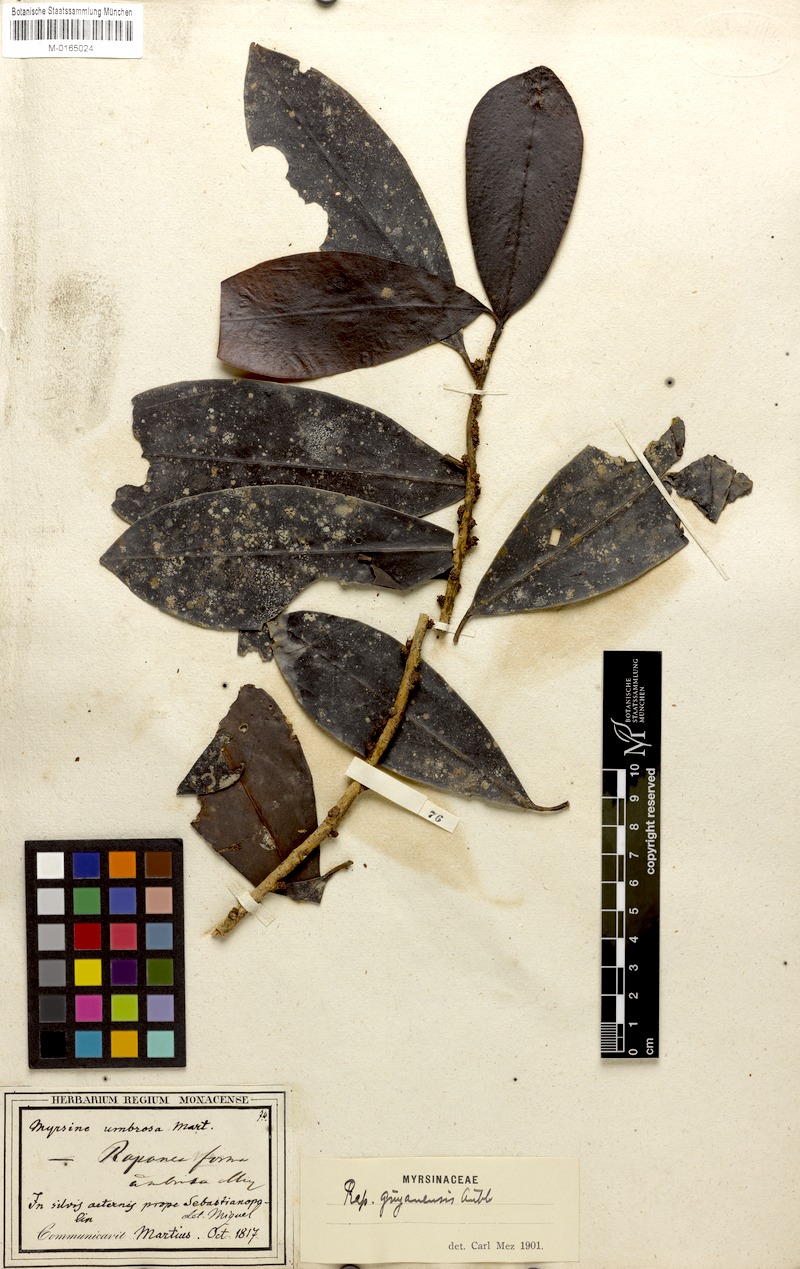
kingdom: Plantae
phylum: Tracheophyta
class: Magnoliopsida
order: Ericales
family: Primulaceae
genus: Myrsine
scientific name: Myrsine umbellata
